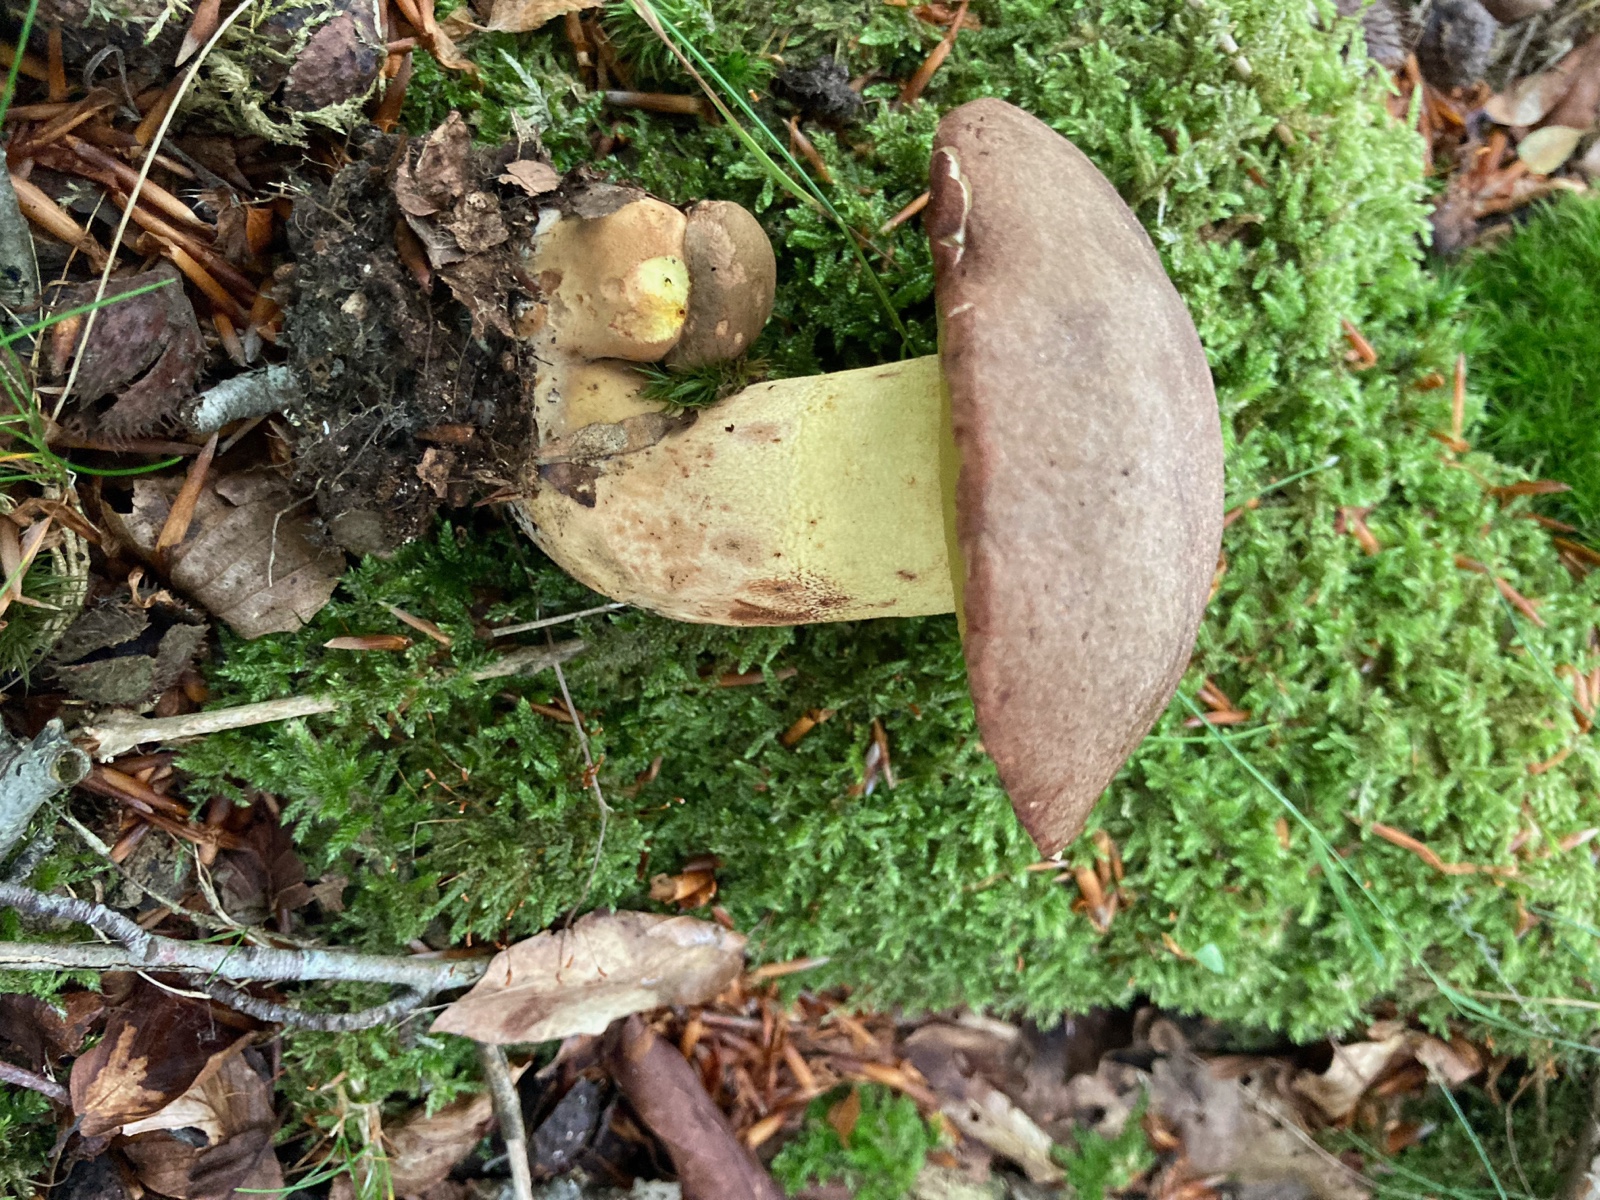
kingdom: Fungi
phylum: Basidiomycota
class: Agaricomycetes
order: Boletales
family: Boletaceae
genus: Butyriboletus
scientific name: Butyriboletus appendiculatus
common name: tenstokket rørhat
